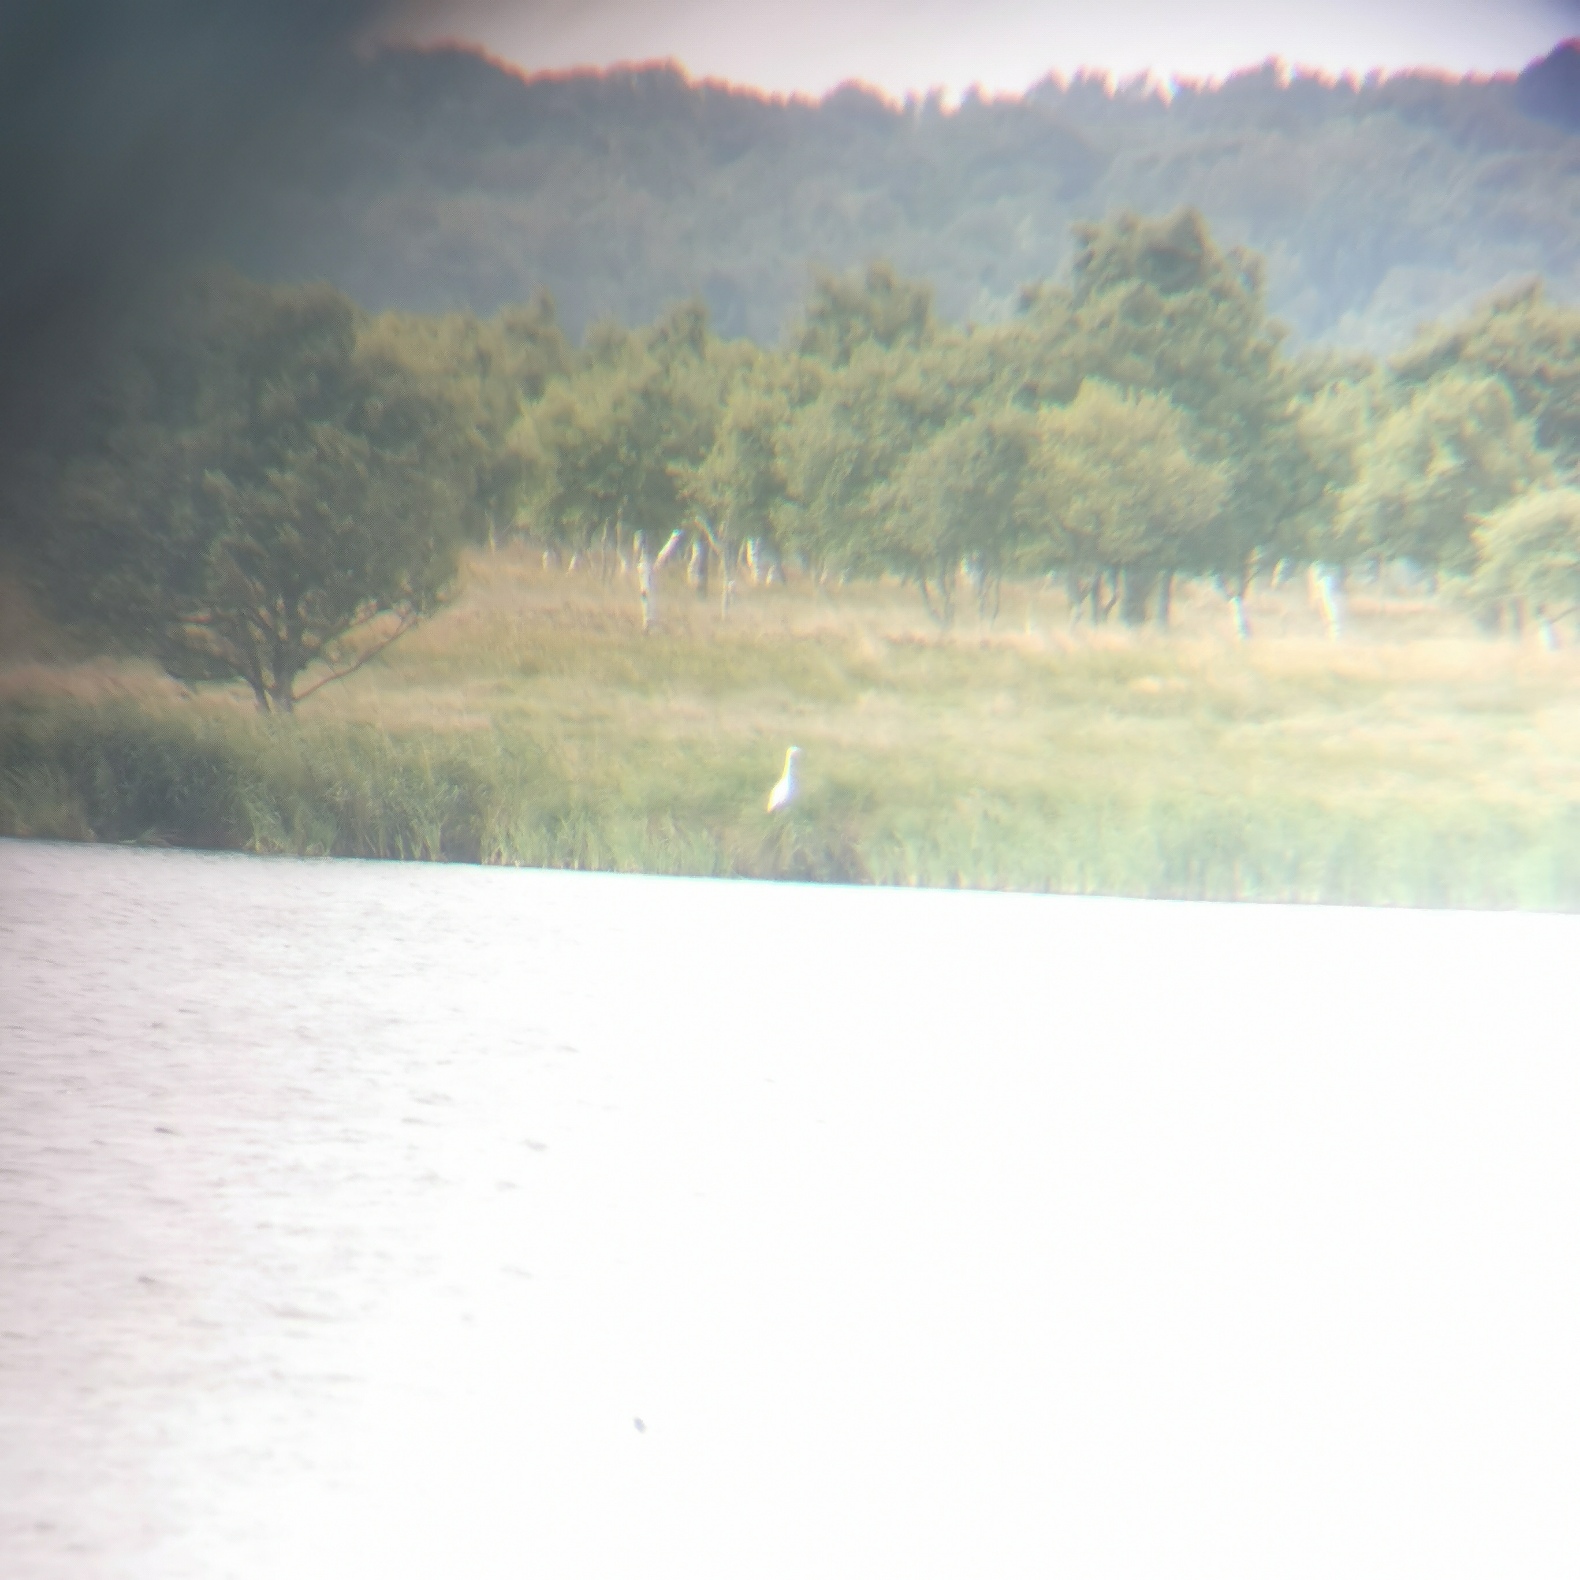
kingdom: Animalia
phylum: Chordata
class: Aves
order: Pelecaniformes
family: Ardeidae
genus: Ardea
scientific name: Ardea alba
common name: Sølvhejre
